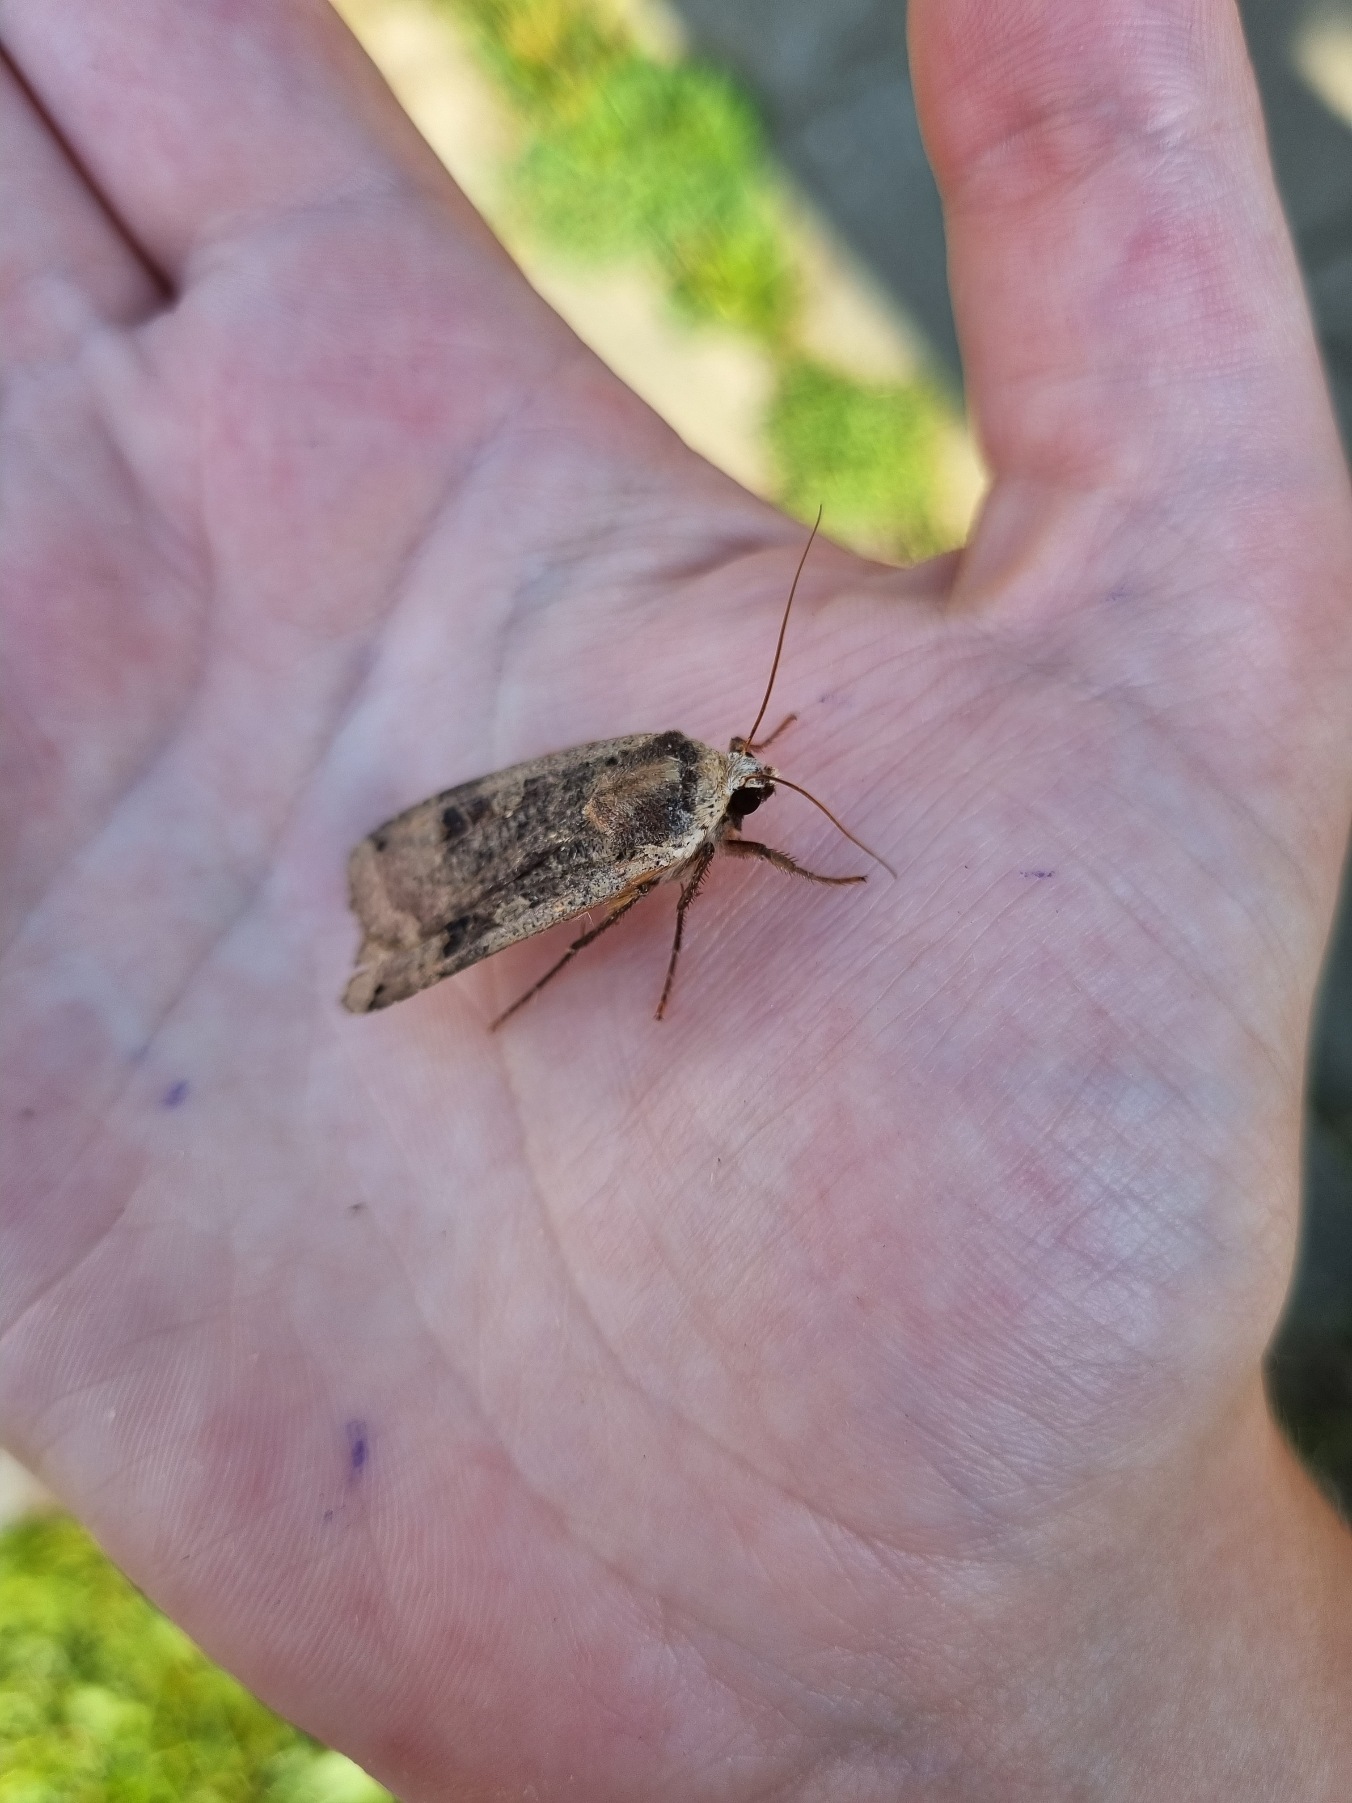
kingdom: Animalia
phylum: Arthropoda
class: Insecta
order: Lepidoptera
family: Noctuidae
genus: Noctua
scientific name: Noctua pronuba
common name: Stor smutugle
